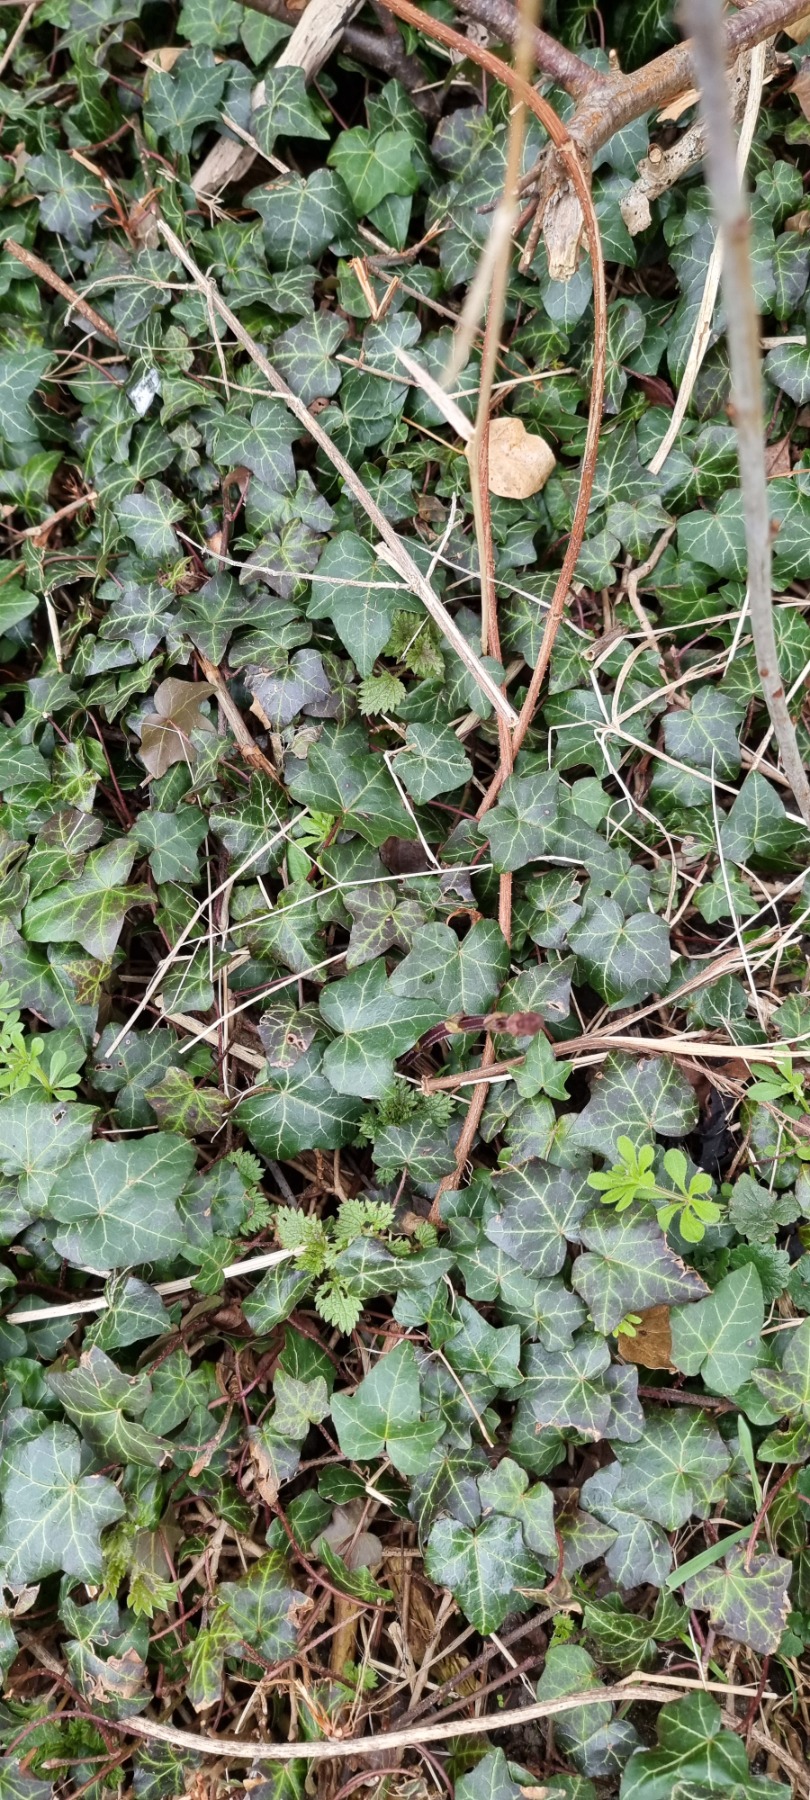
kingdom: Plantae
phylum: Tracheophyta
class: Magnoliopsida
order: Apiales
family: Araliaceae
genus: Hedera
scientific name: Hedera helix
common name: Vedbend
